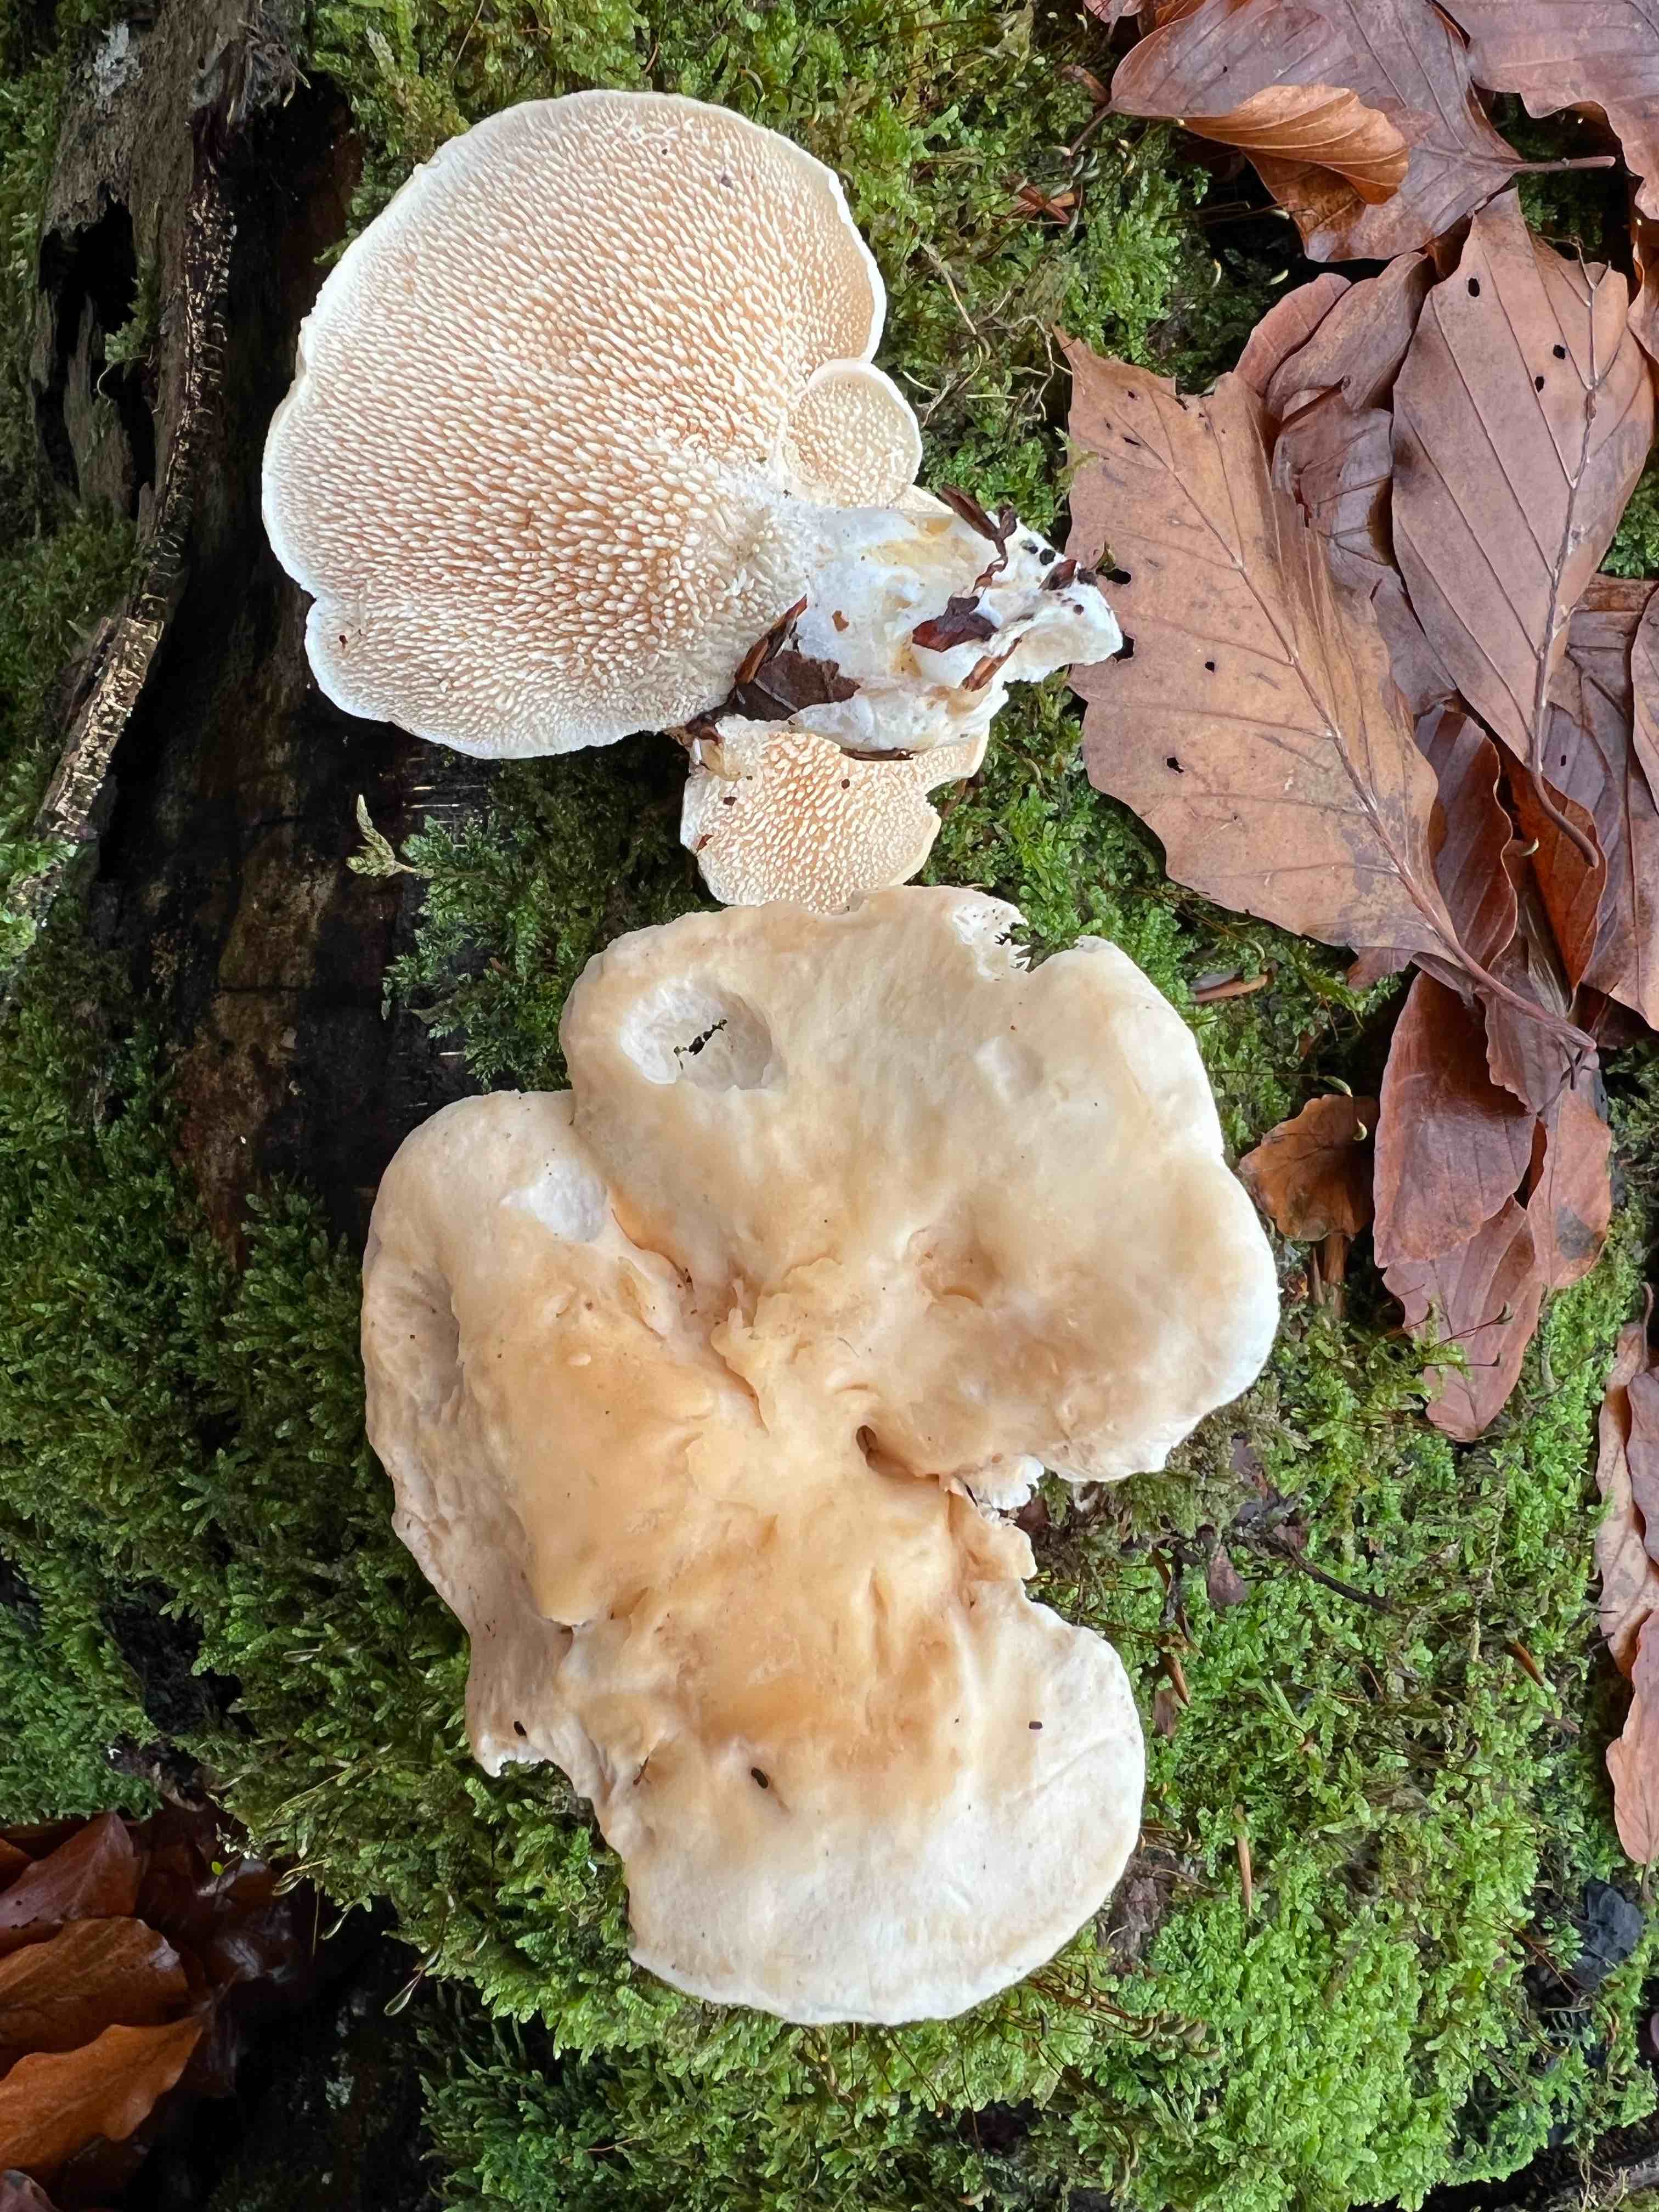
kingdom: Fungi
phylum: Basidiomycota
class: Agaricomycetes
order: Cantharellales
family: Hydnaceae
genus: Hydnum
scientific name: Hydnum repandum
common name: almindelig pigsvamp
